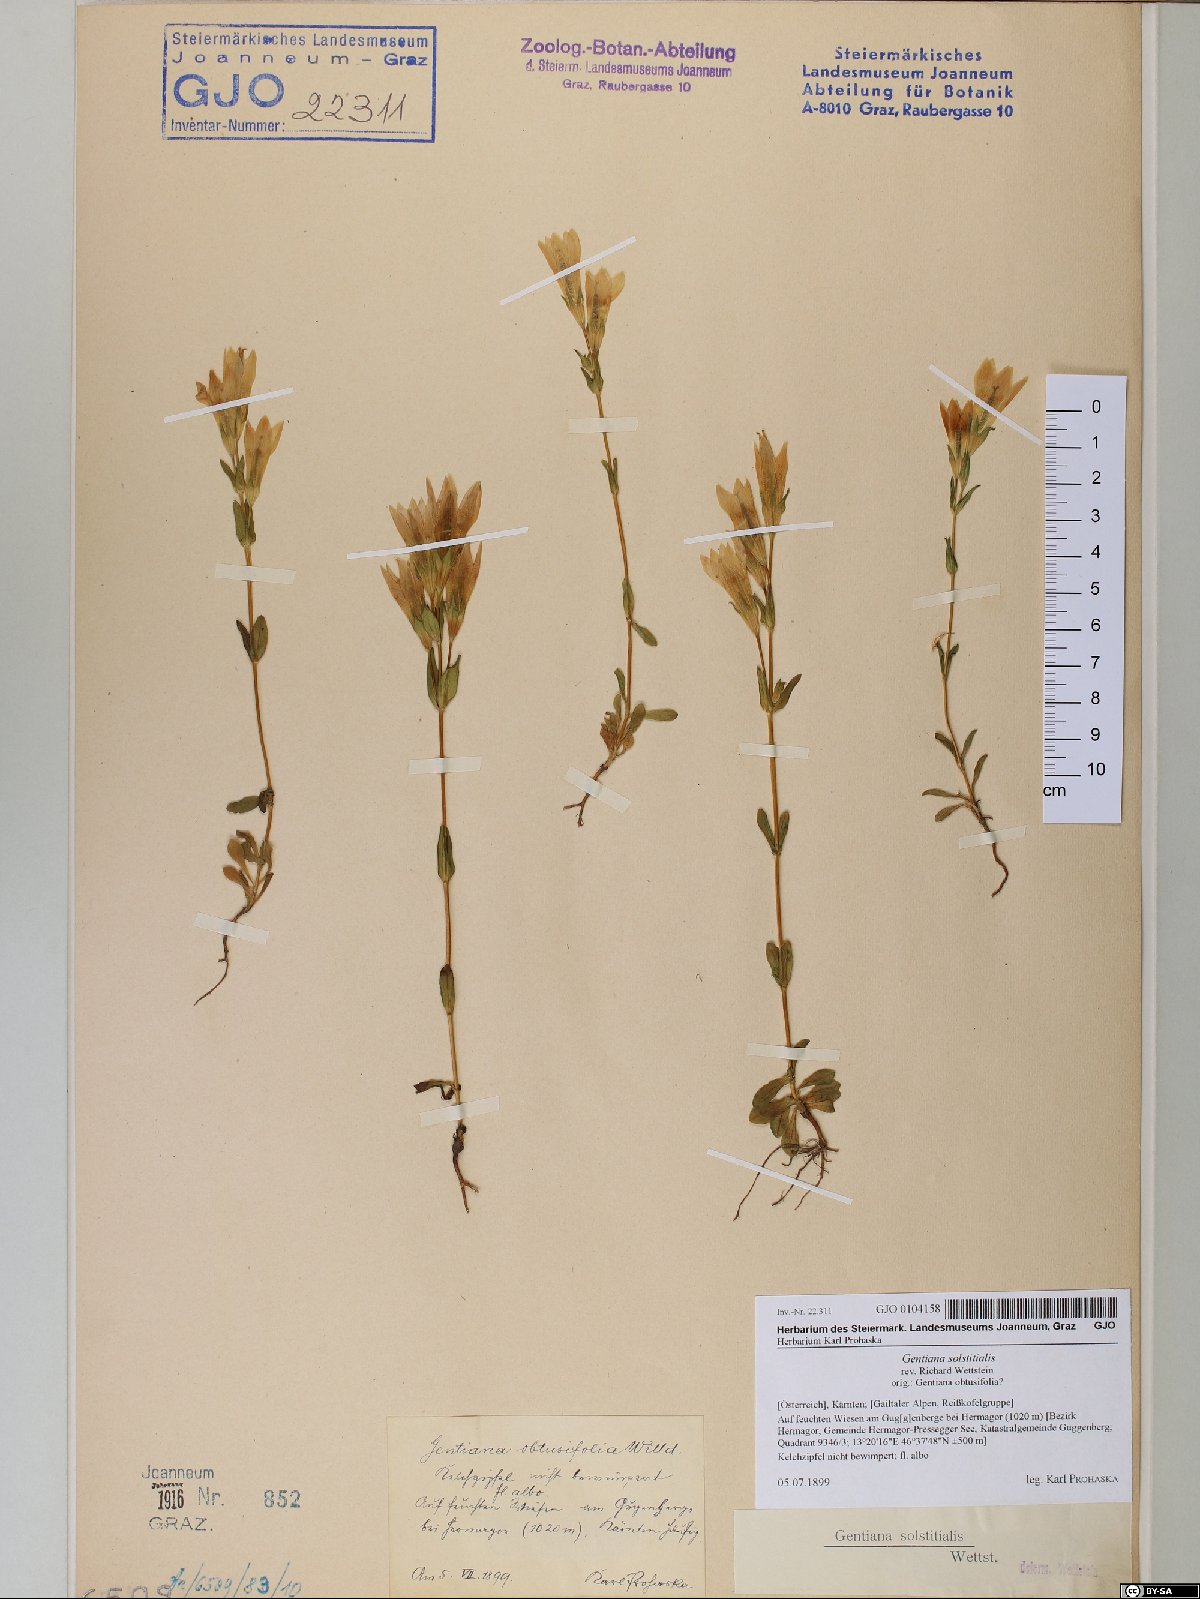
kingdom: Plantae
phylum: Tracheophyta
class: Magnoliopsida
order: Gentianales
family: Gentianaceae
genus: Gentianella
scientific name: Gentianella germanica
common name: Chiltern-gentian
